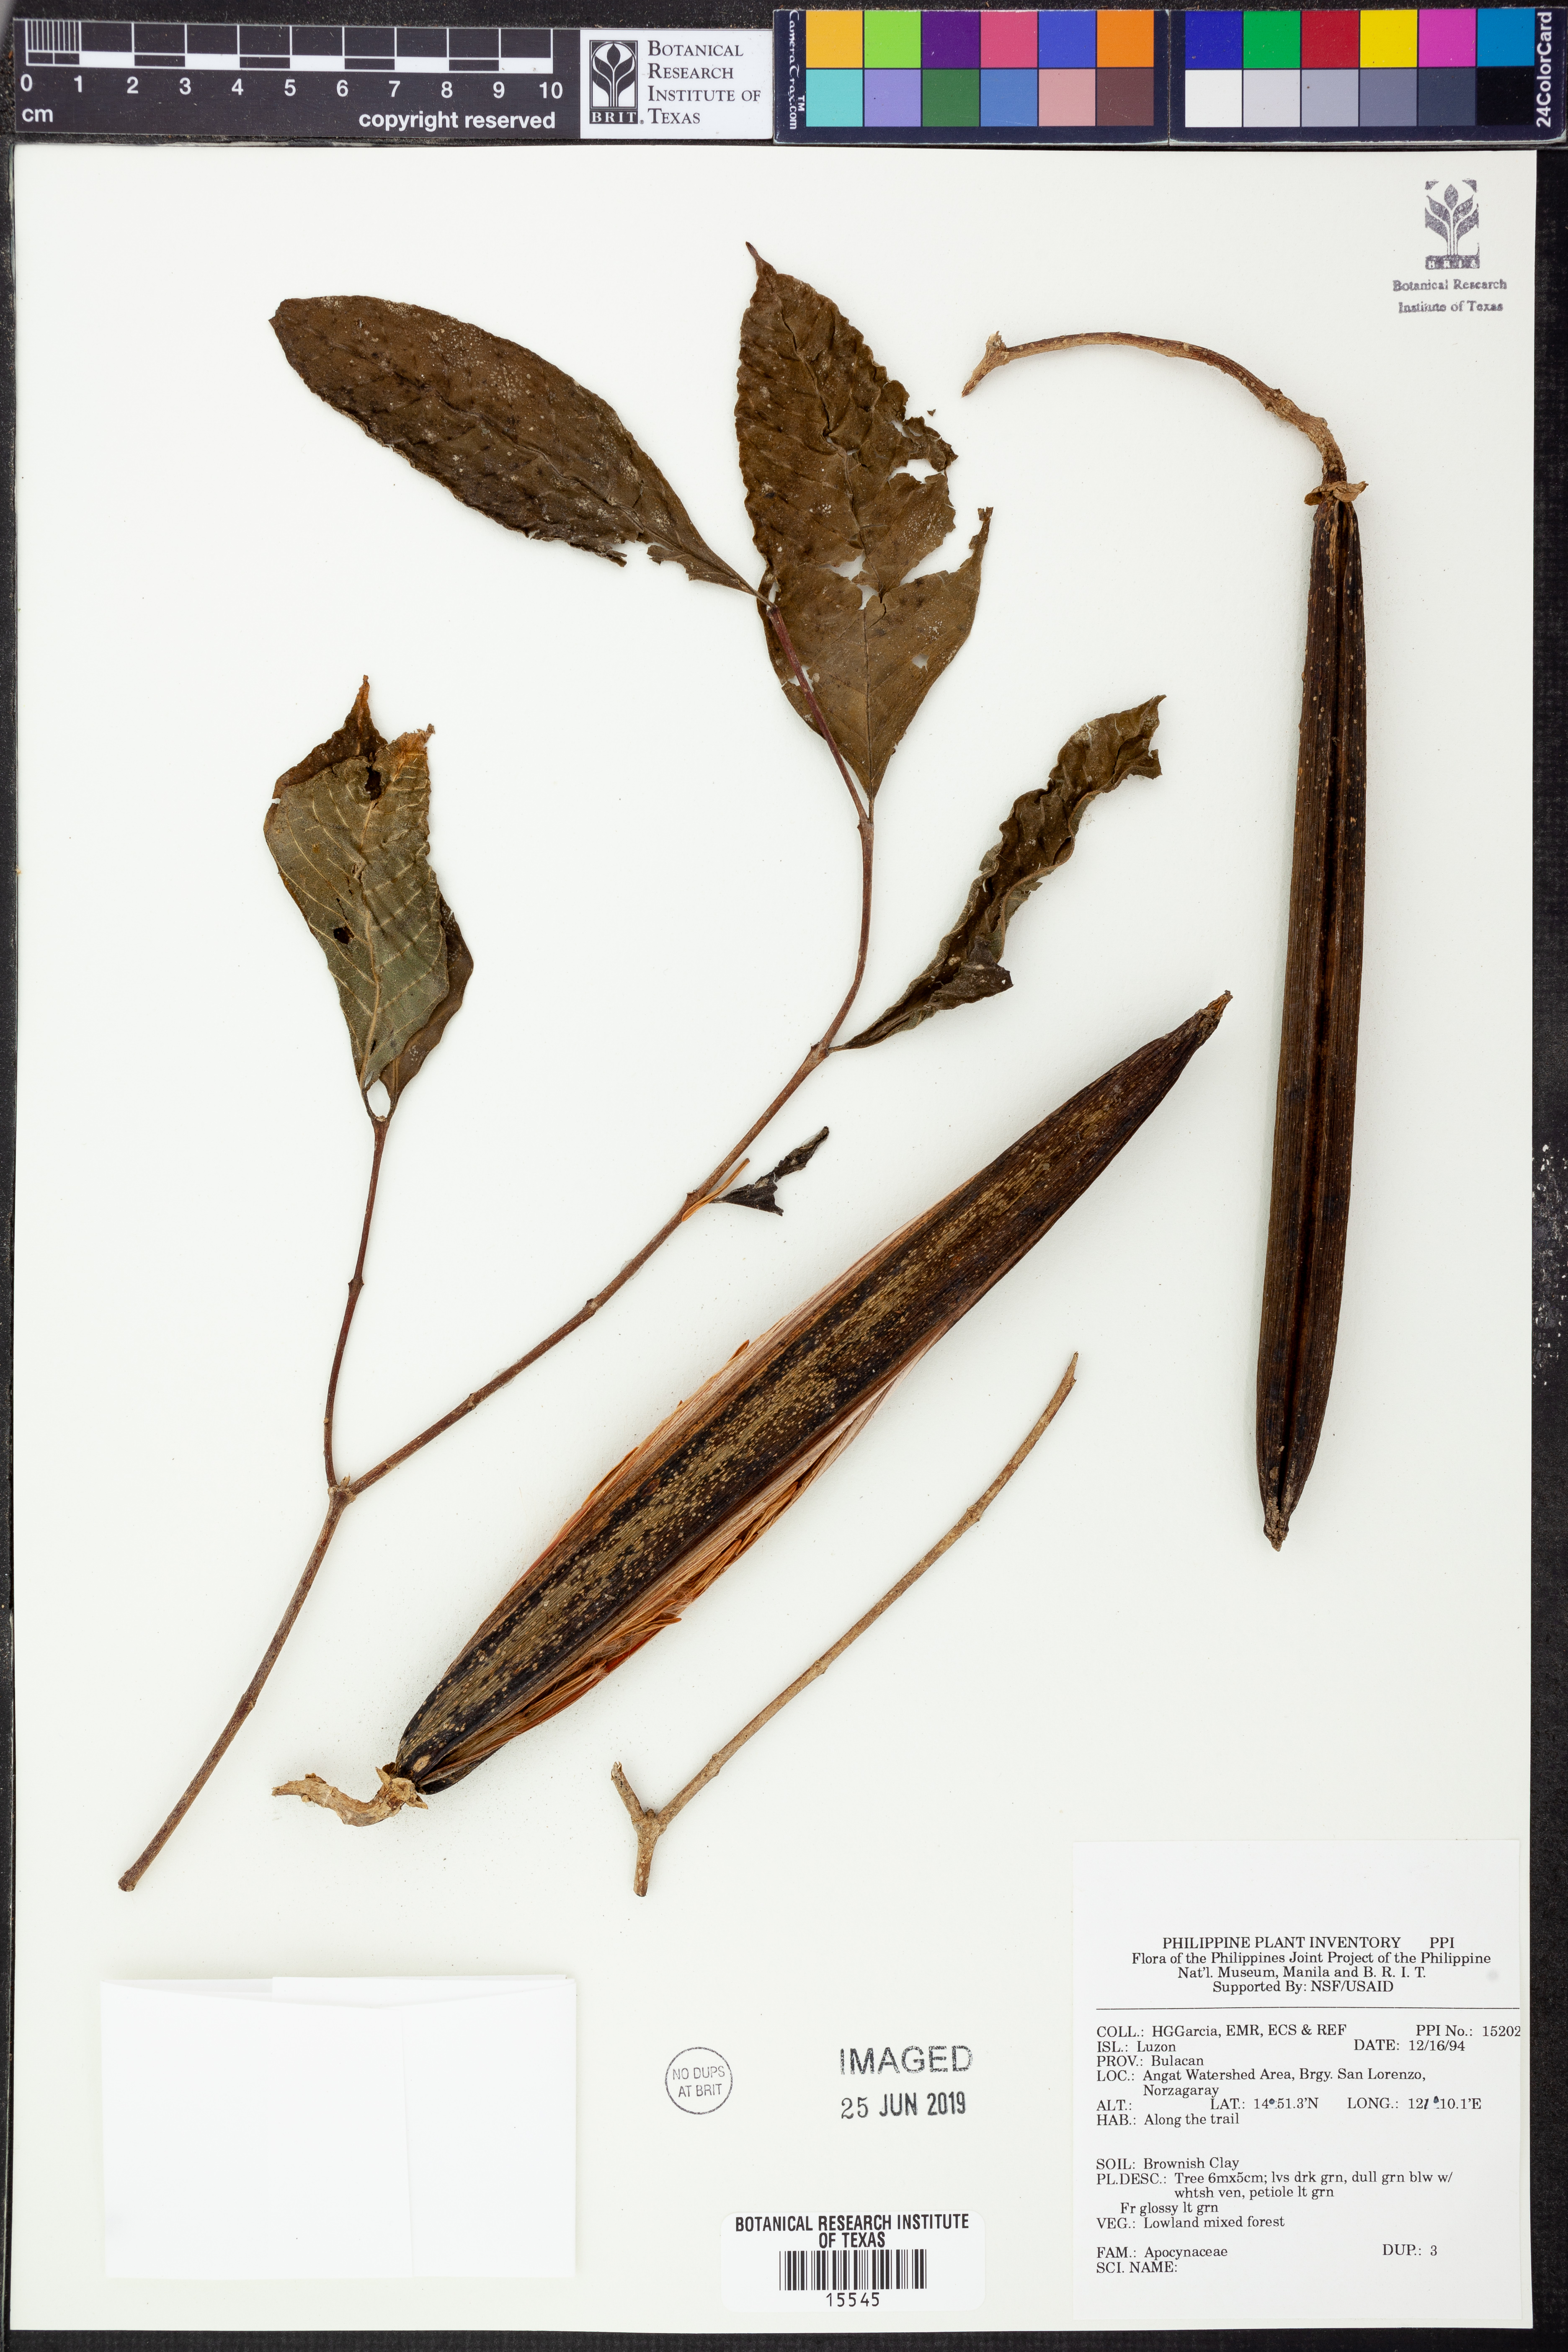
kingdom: Plantae
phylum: Tracheophyta
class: Magnoliopsida
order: Gentianales
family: Apocynaceae
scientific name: Apocynaceae
